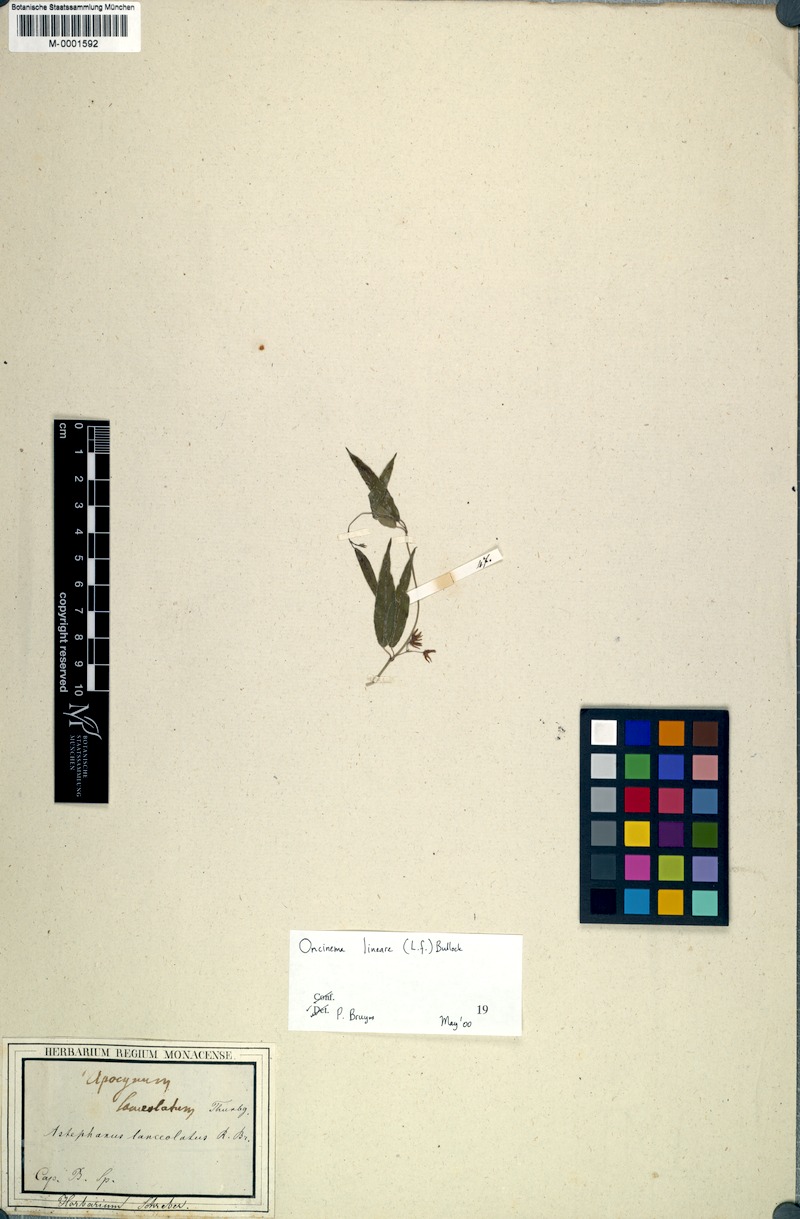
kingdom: Plantae
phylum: Tracheophyta
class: Magnoliopsida
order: Gentianales
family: Apocynaceae
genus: Oncinema
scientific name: Oncinema lineare
